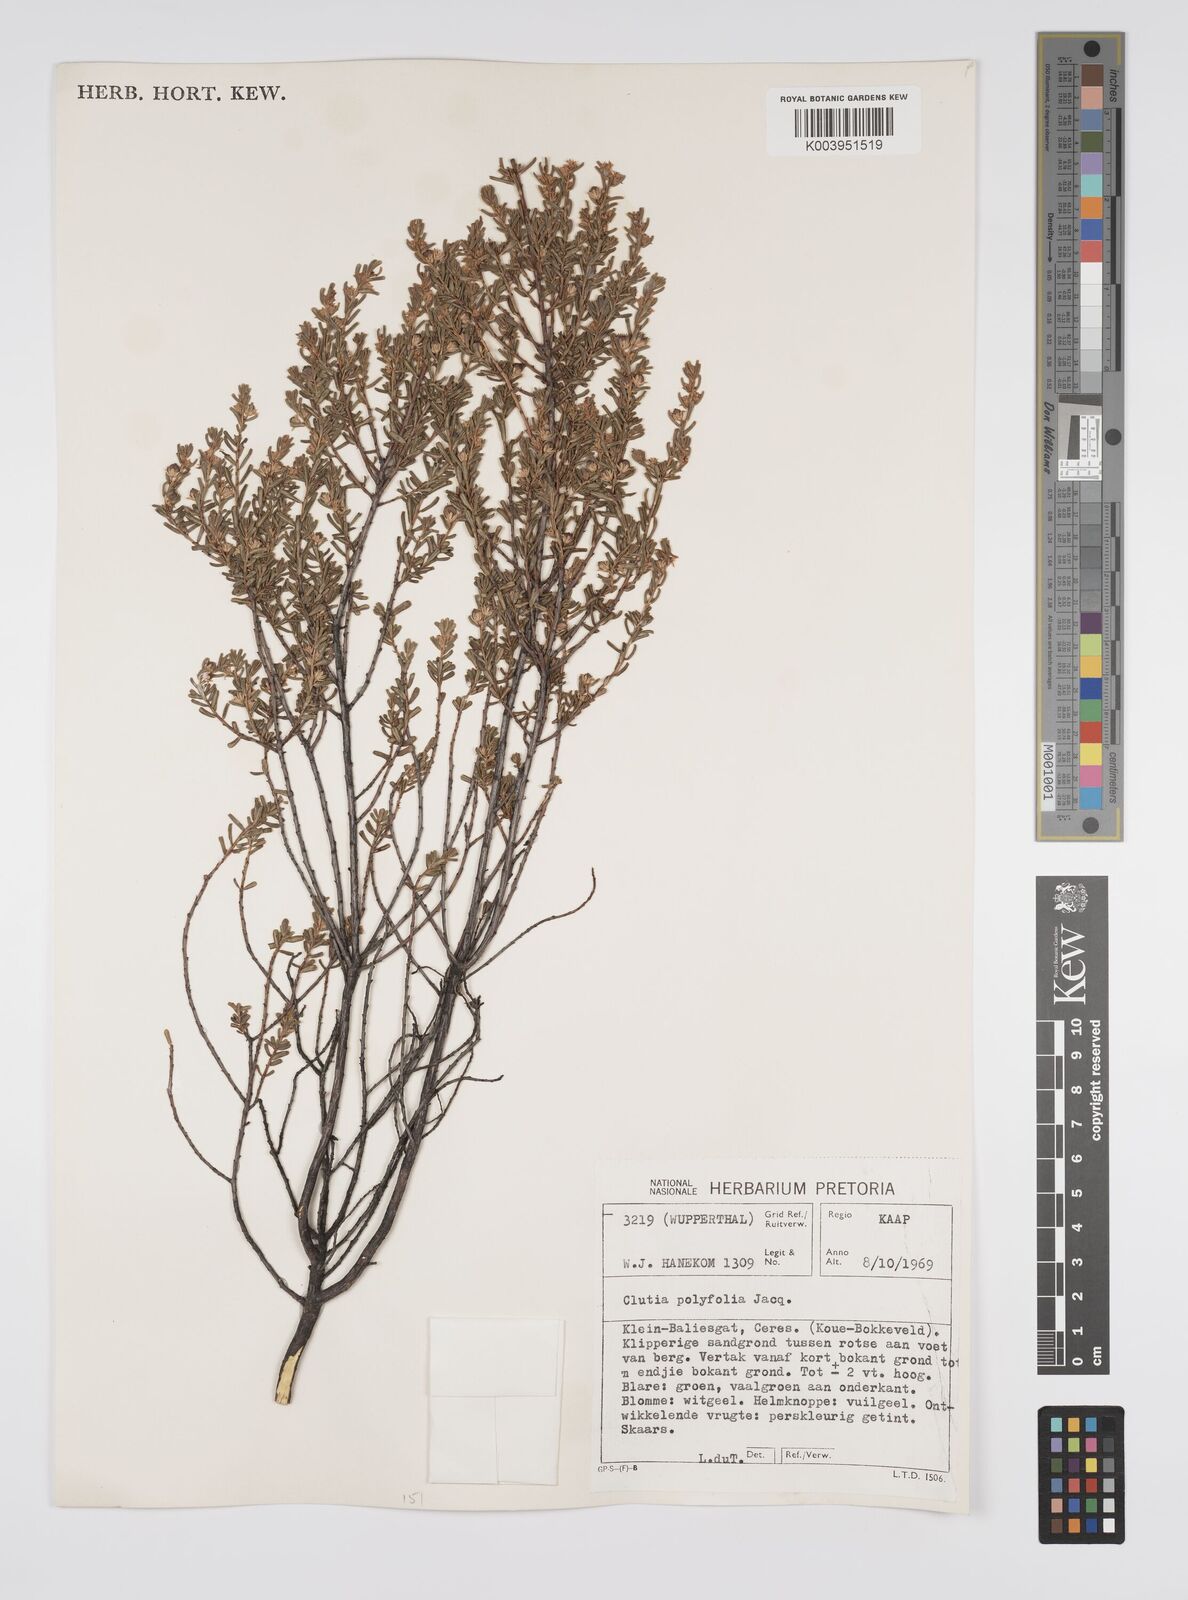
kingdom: Plantae
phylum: Tracheophyta
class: Magnoliopsida
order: Malpighiales
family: Peraceae
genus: Clutia
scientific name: Clutia
